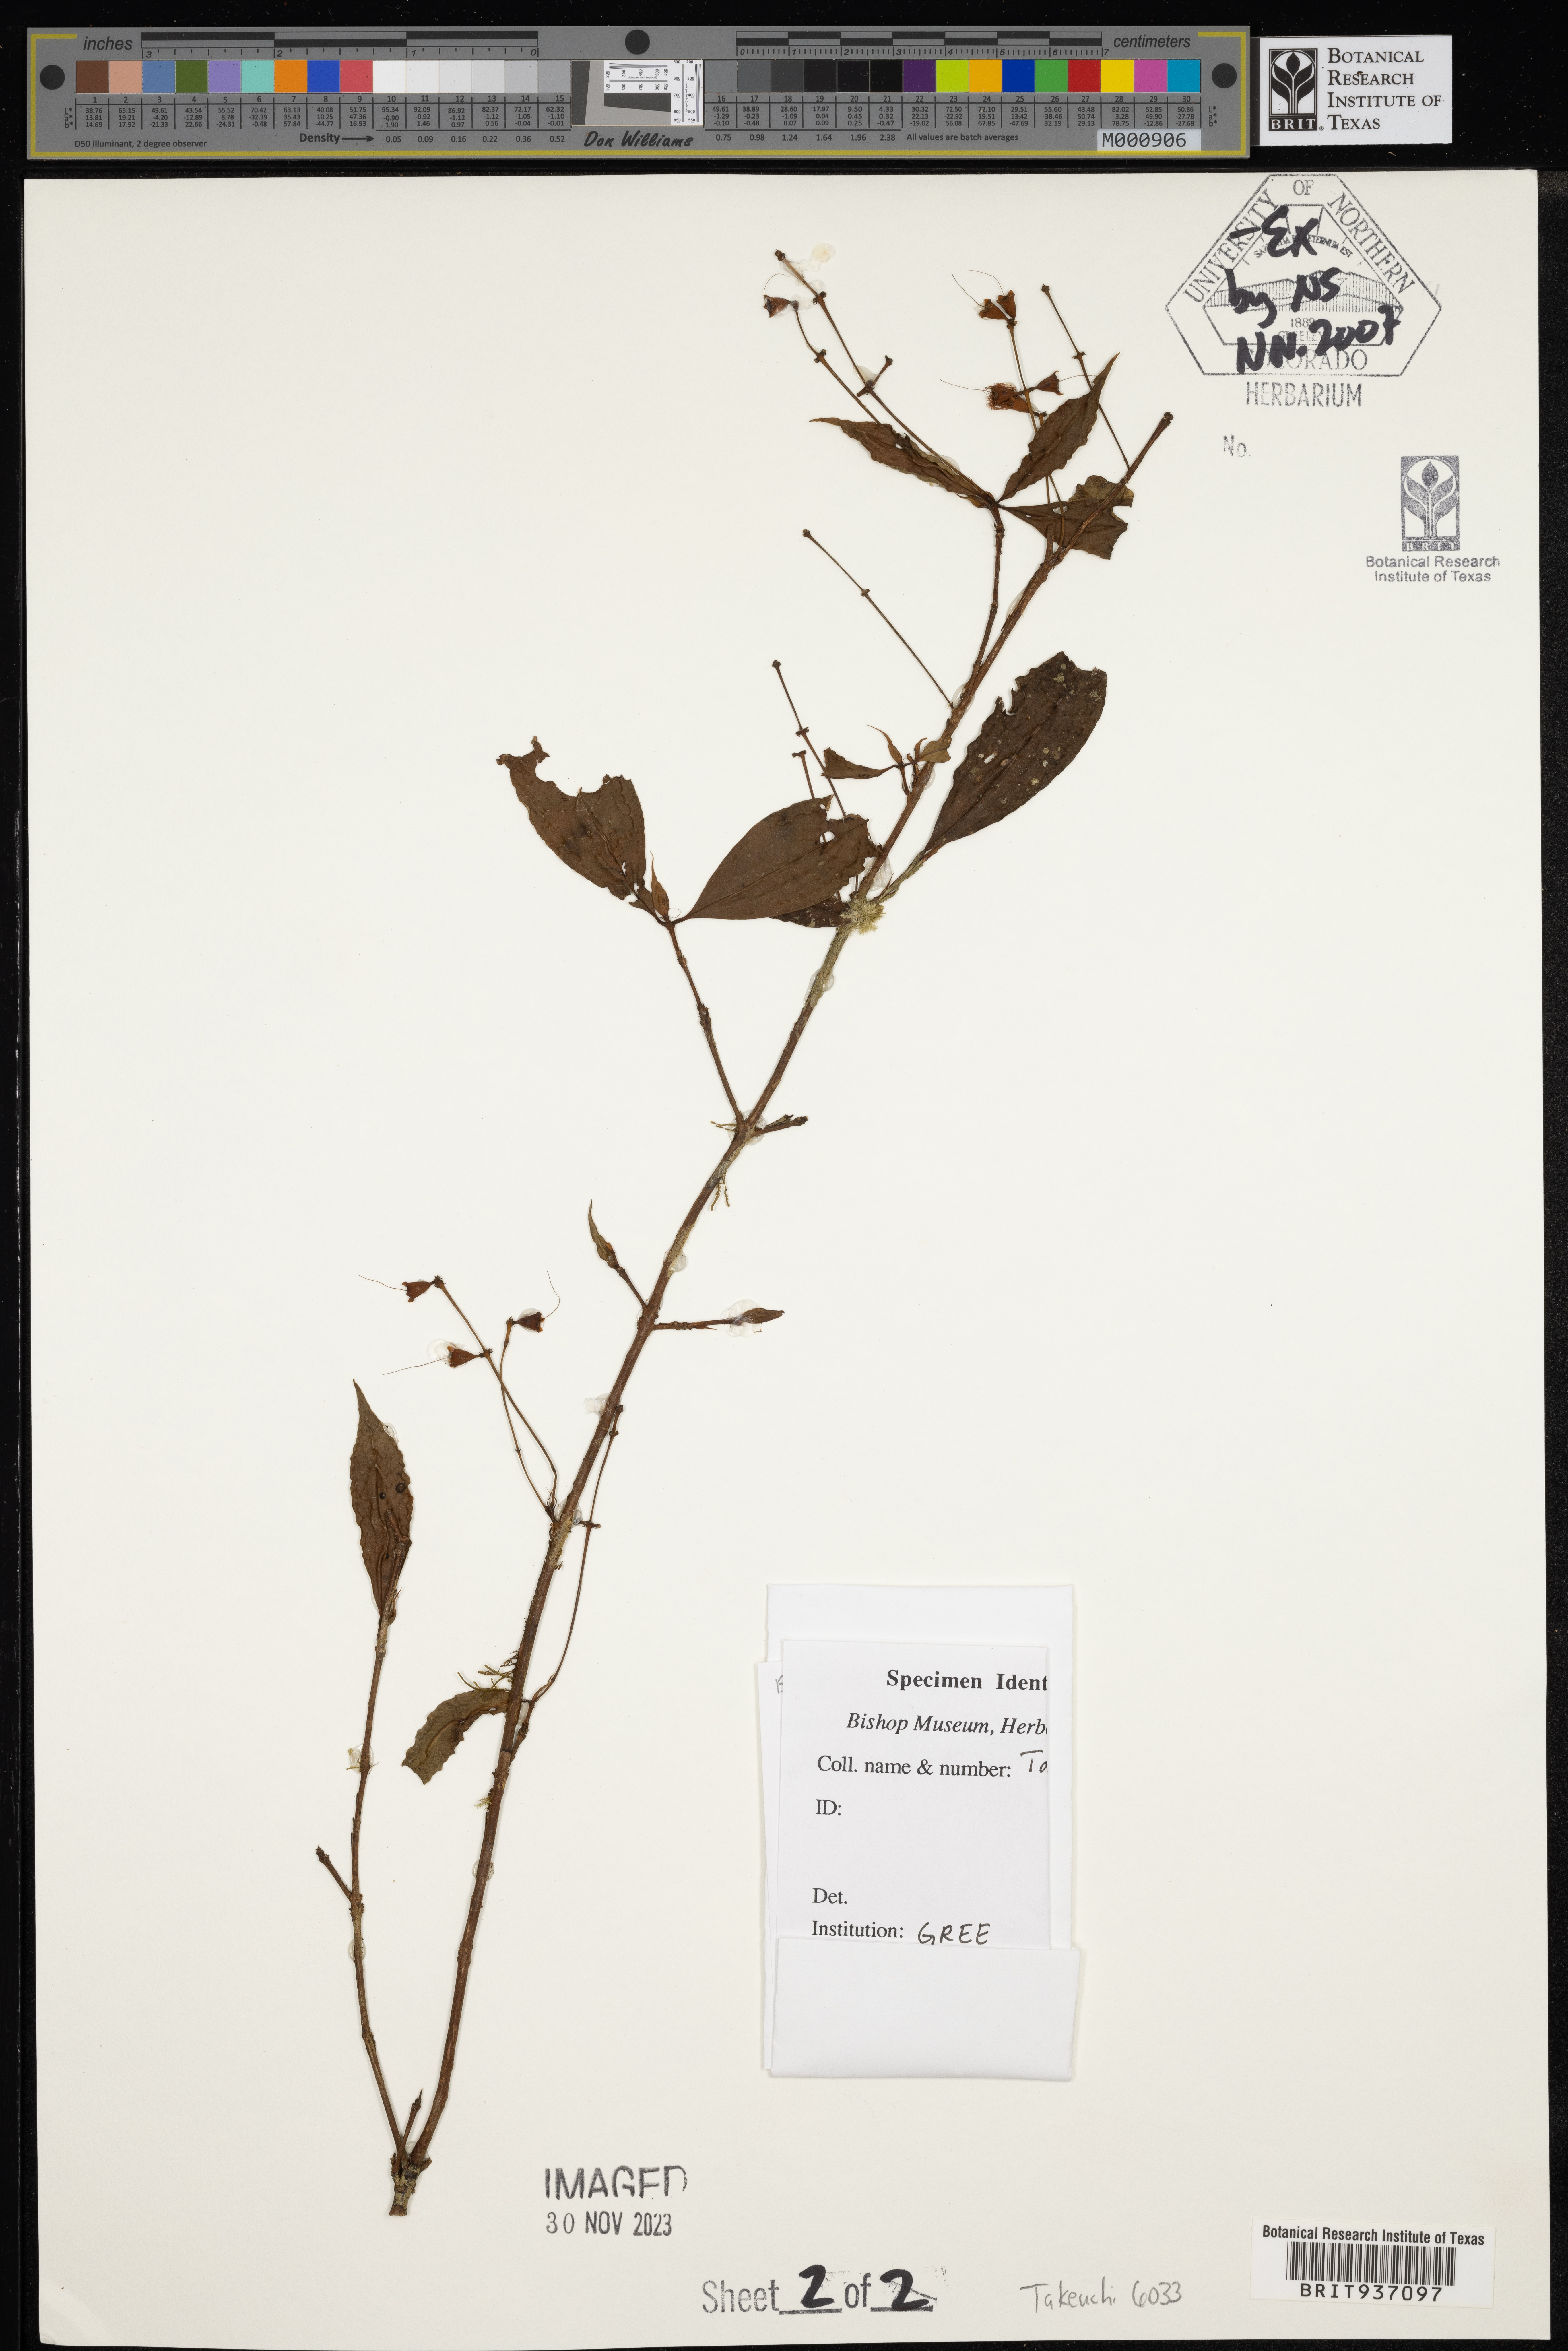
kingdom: Plantae
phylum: Tracheophyta
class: Magnoliopsida
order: Myrtales
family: Myrtaceae
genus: Syzygium
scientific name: Syzygium
